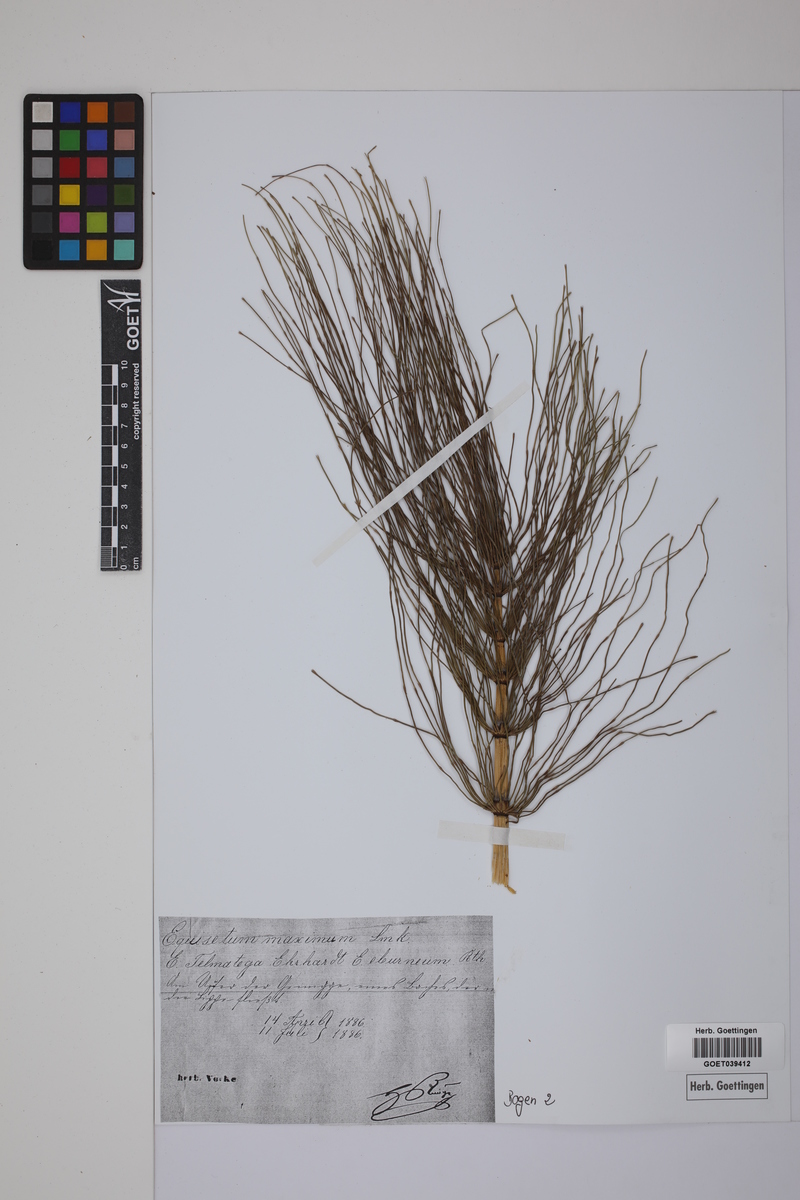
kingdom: Plantae
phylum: Tracheophyta
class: Polypodiopsida
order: Equisetales
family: Equisetaceae
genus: Equisetum
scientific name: Equisetum telmateia
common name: Great horsetail
